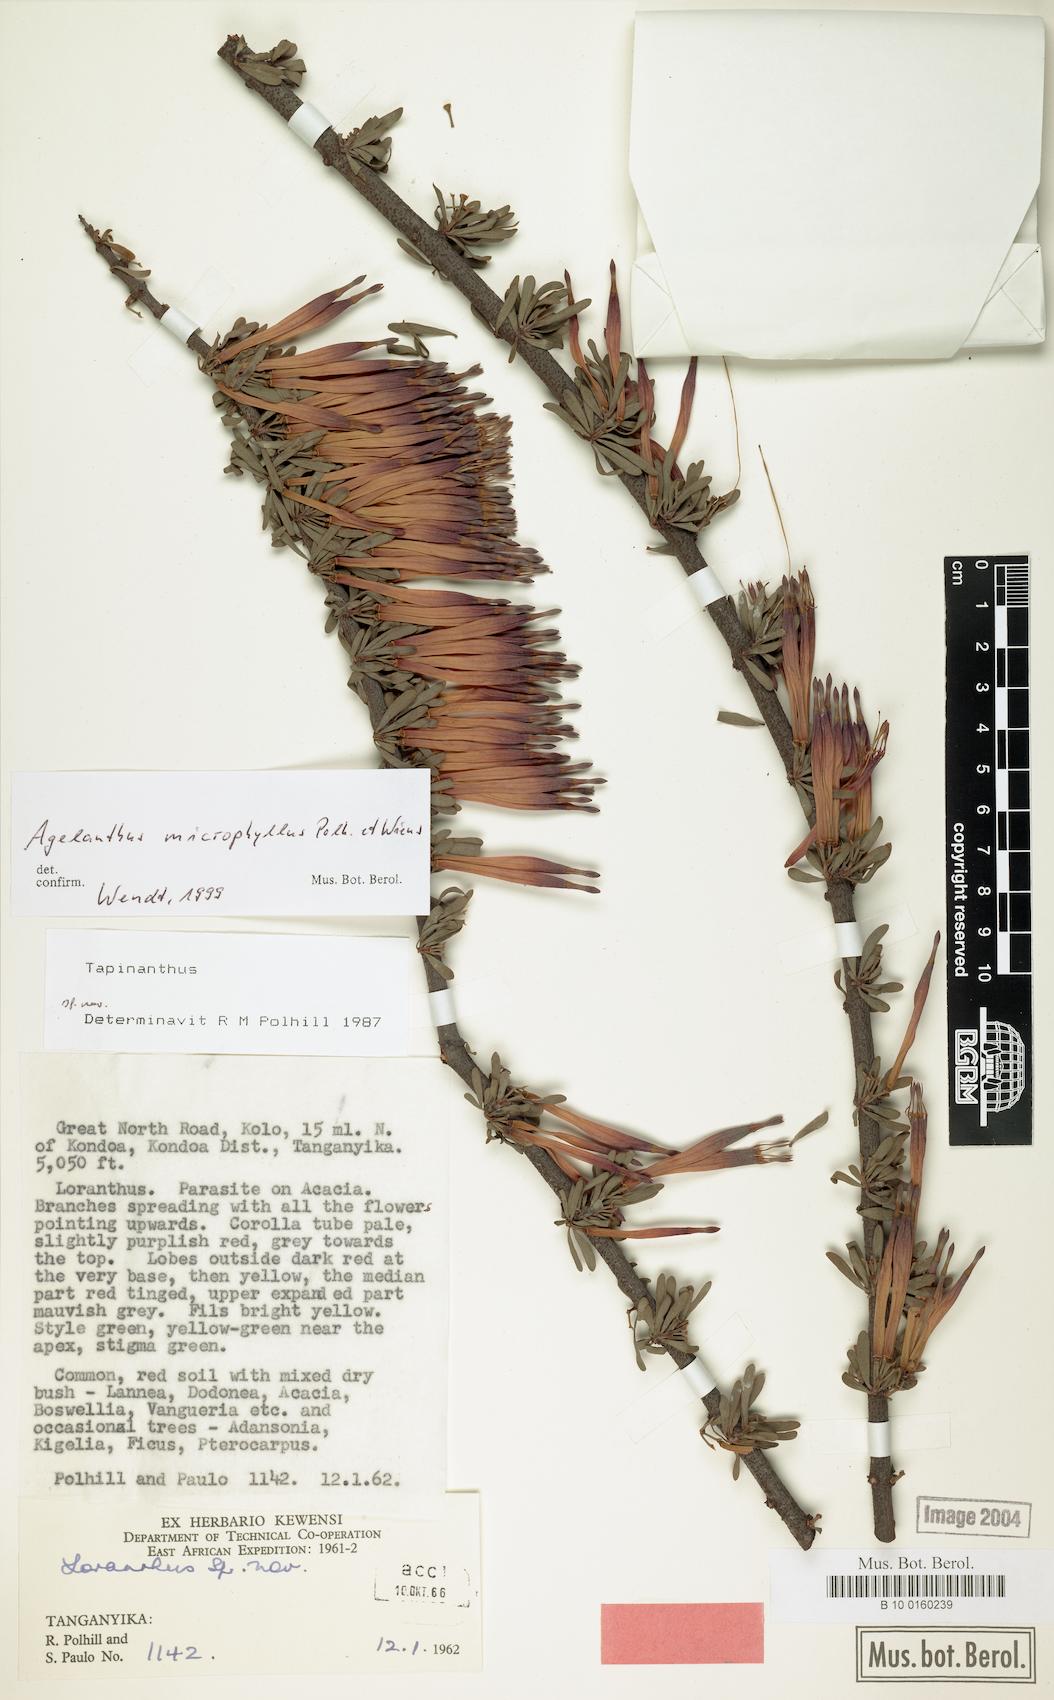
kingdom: Plantae
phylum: Tracheophyta
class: Magnoliopsida
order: Santalales
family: Loranthaceae
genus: Agelanthus
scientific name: Agelanthus microphyllus
